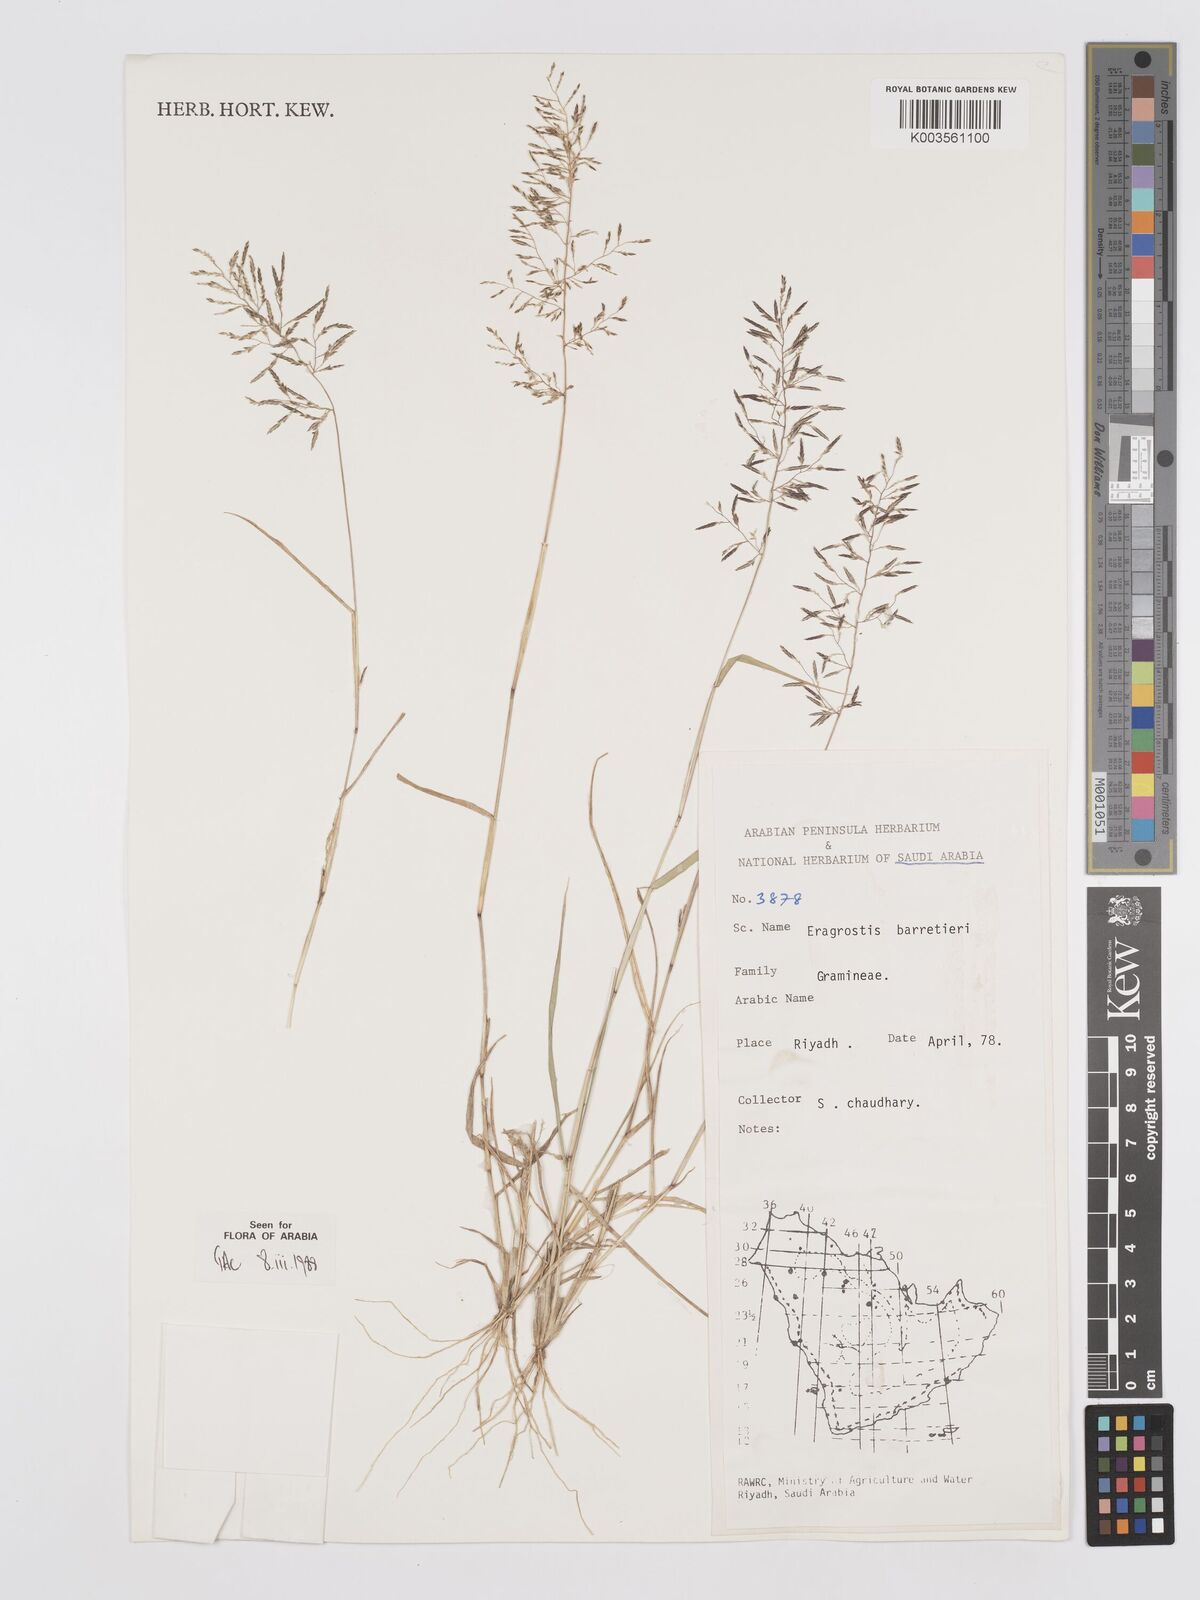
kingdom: Plantae
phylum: Tracheophyta
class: Liliopsida
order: Poales
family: Poaceae
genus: Eragrostis
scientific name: Eragrostis barrelieri
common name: Mediterranean lovegrass
